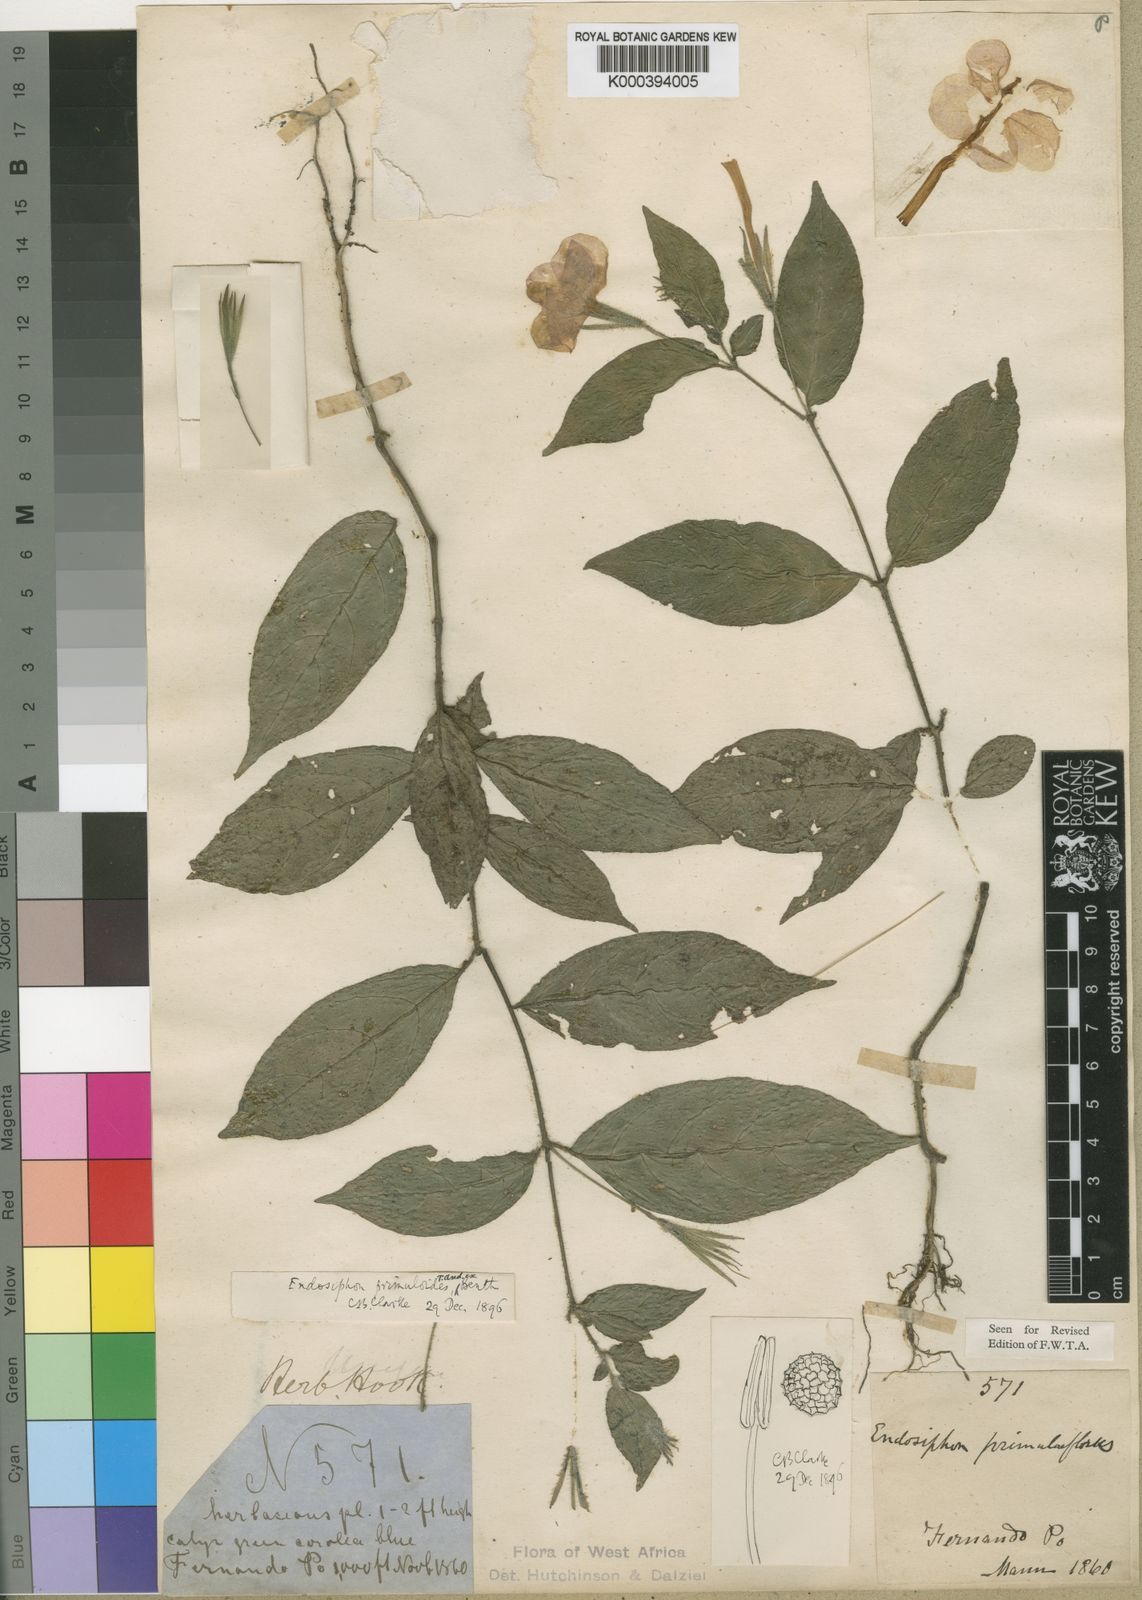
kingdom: Plantae
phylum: Tracheophyta
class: Magnoliopsida
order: Lamiales
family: Acanthaceae
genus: Ruellia
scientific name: Ruellia primuloides
